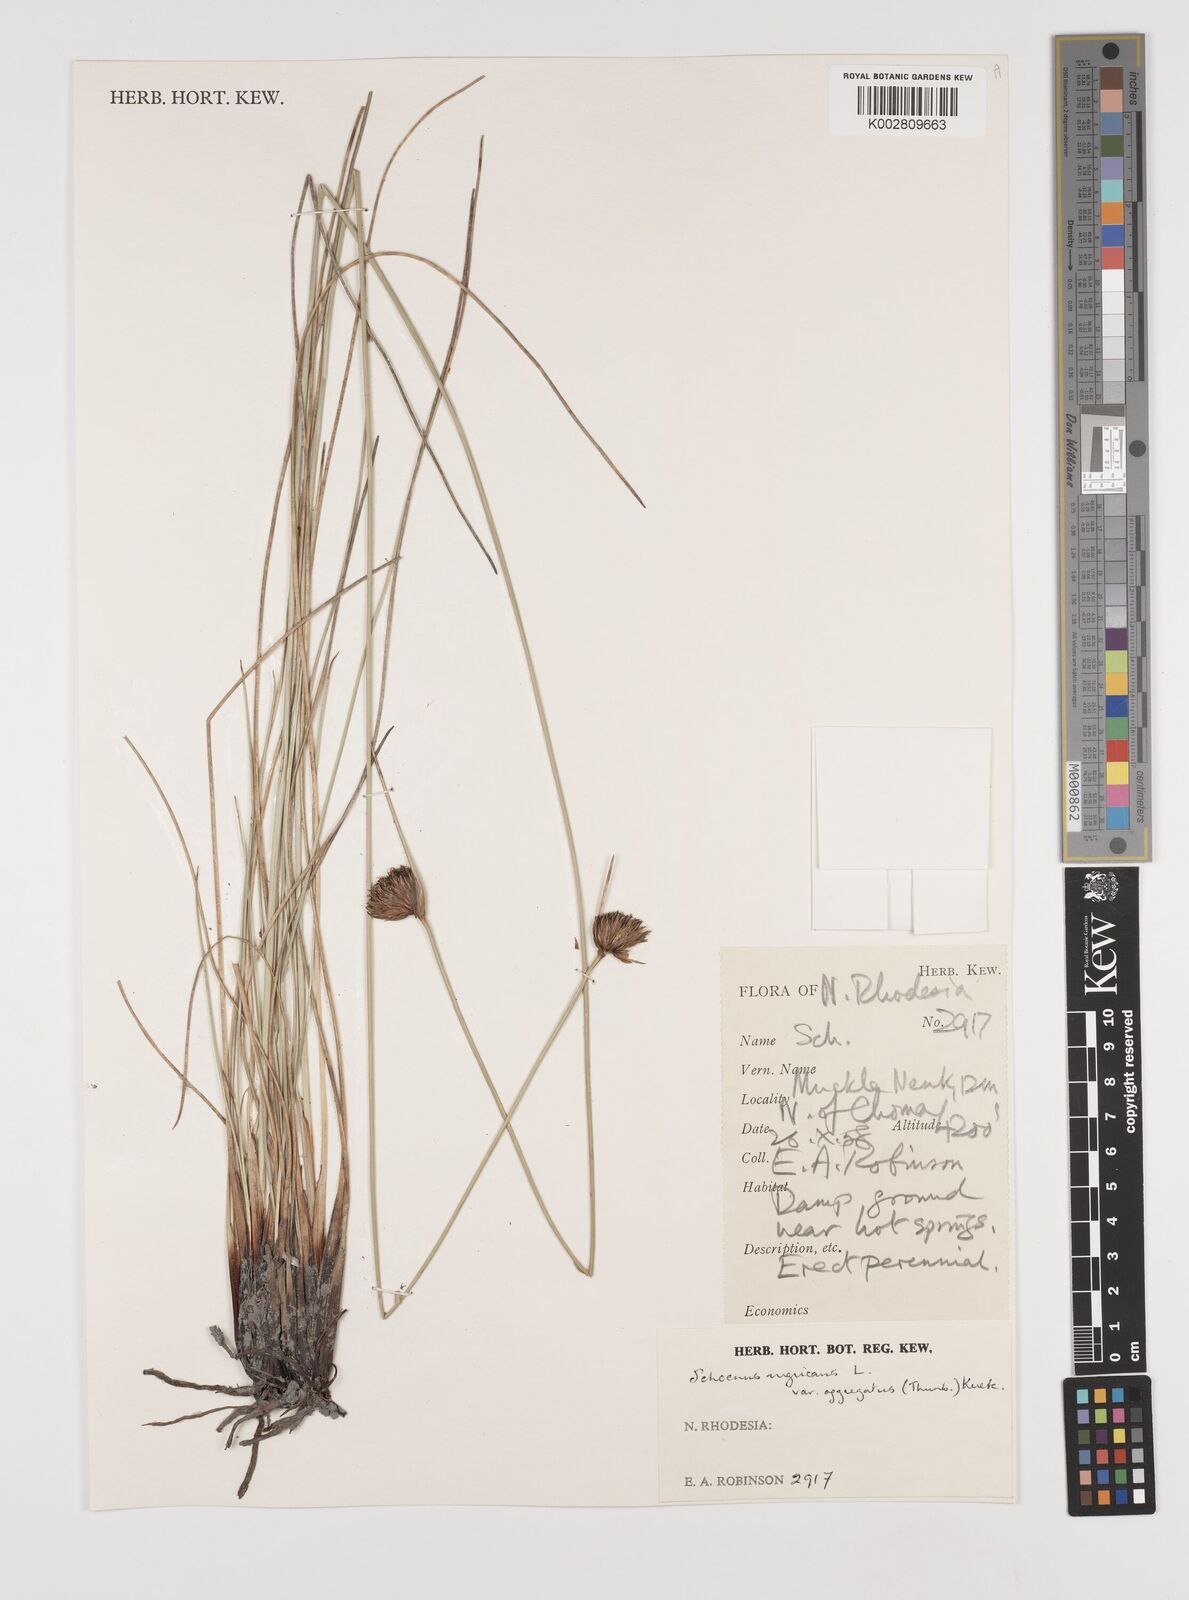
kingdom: Plantae
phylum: Tracheophyta
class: Liliopsida
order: Poales
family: Cyperaceae
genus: Schoenus
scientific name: Schoenus nigricans
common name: Black bog-rush
